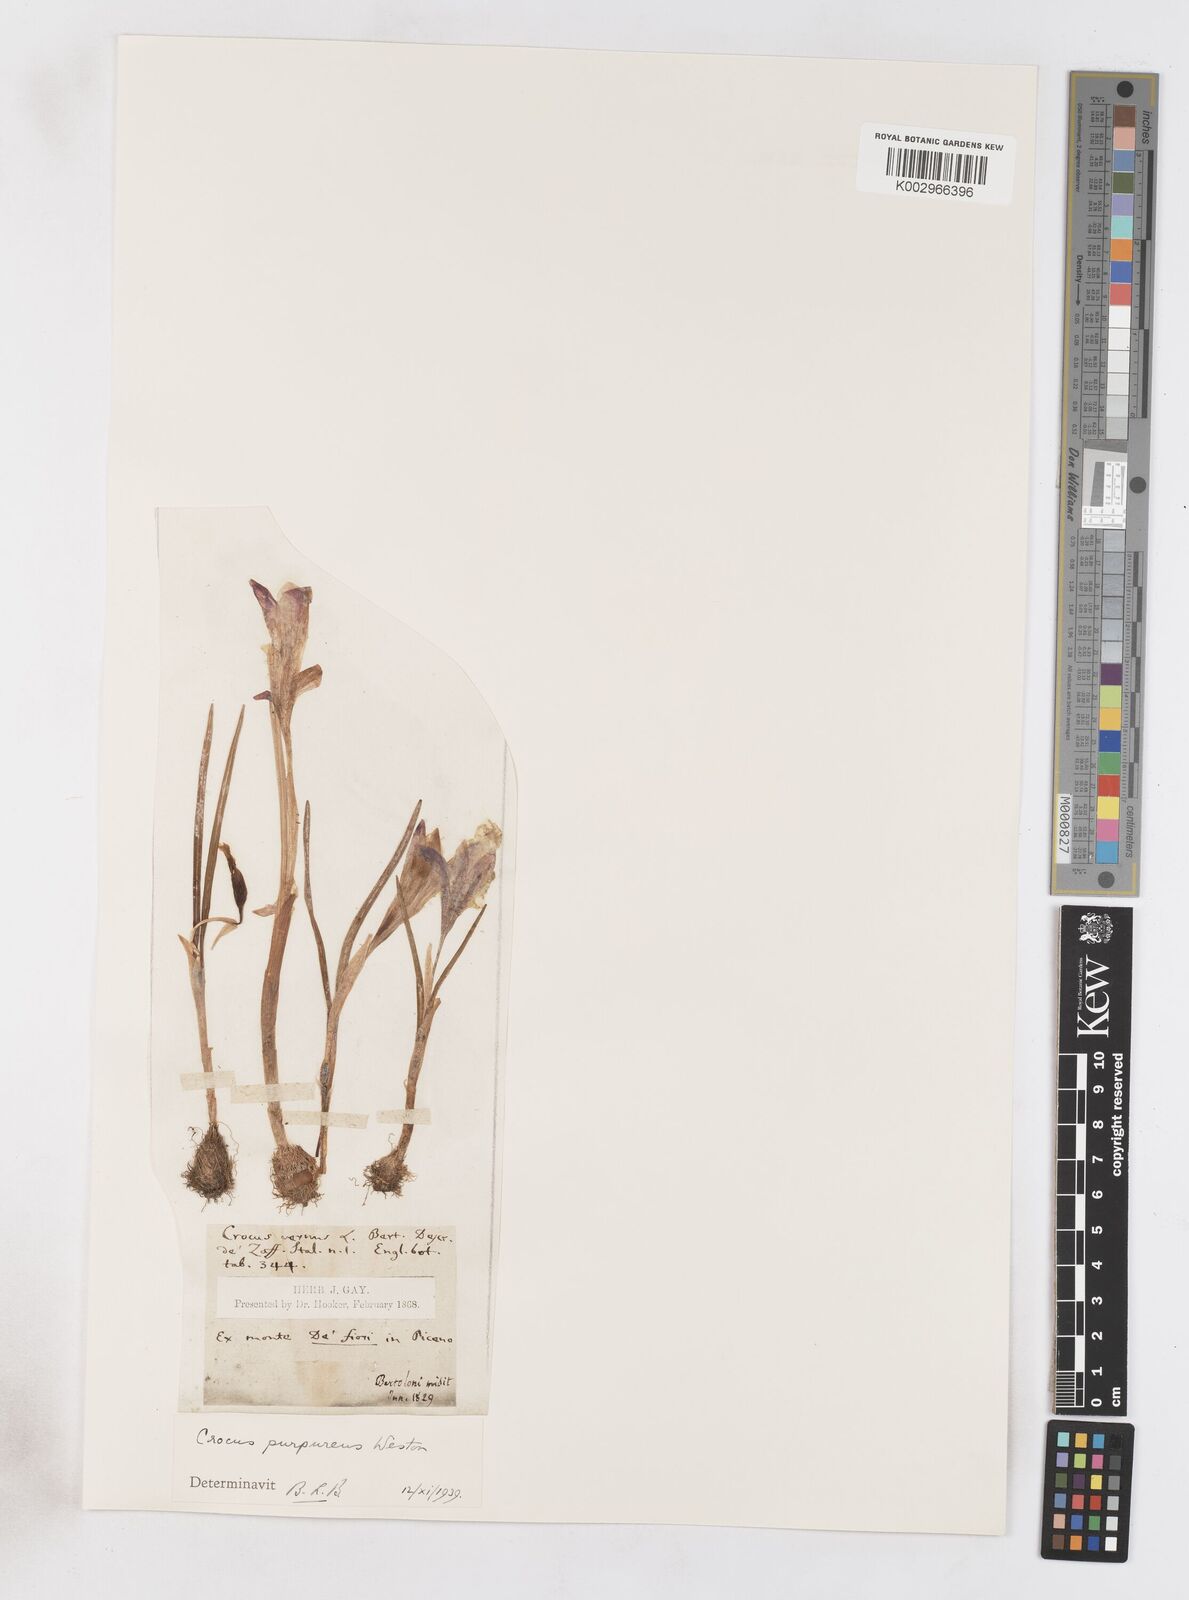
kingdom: Plantae
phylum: Tracheophyta
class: Liliopsida
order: Asparagales
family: Iridaceae
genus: Crocus
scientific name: Crocus vernus
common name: Spring crocus
